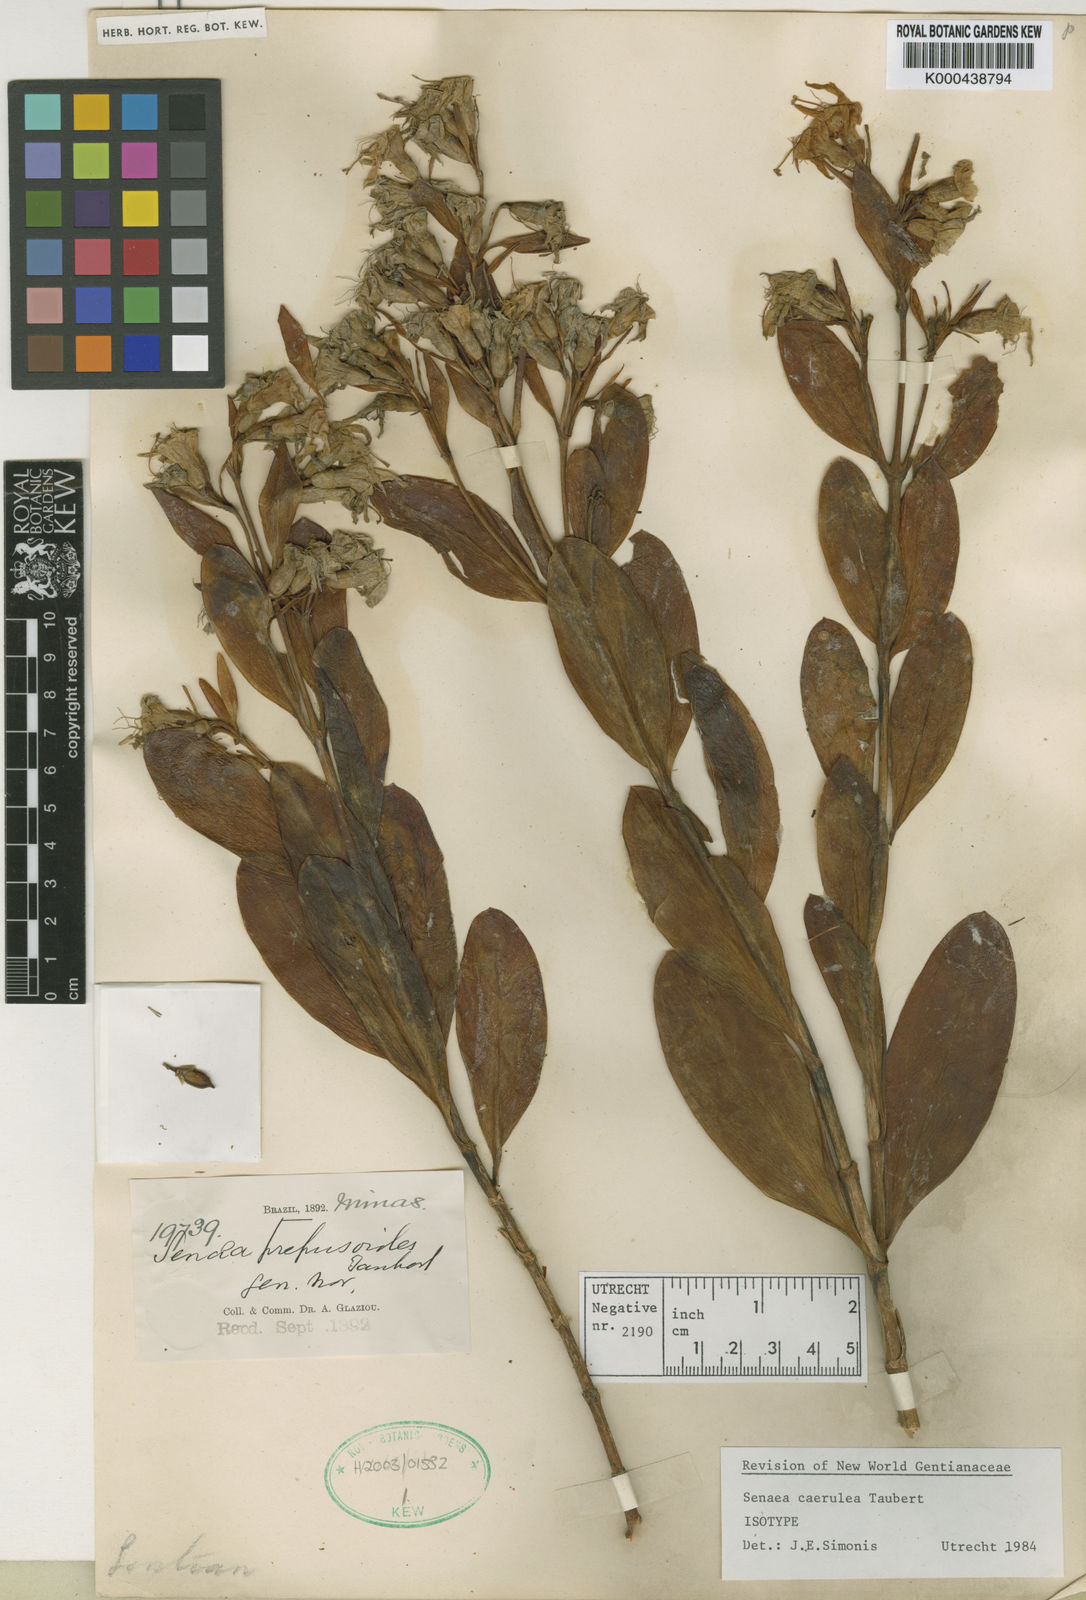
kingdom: Plantae
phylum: Tracheophyta
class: Magnoliopsida
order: Gentianales
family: Gentianaceae
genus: Senaea
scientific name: Senaea
